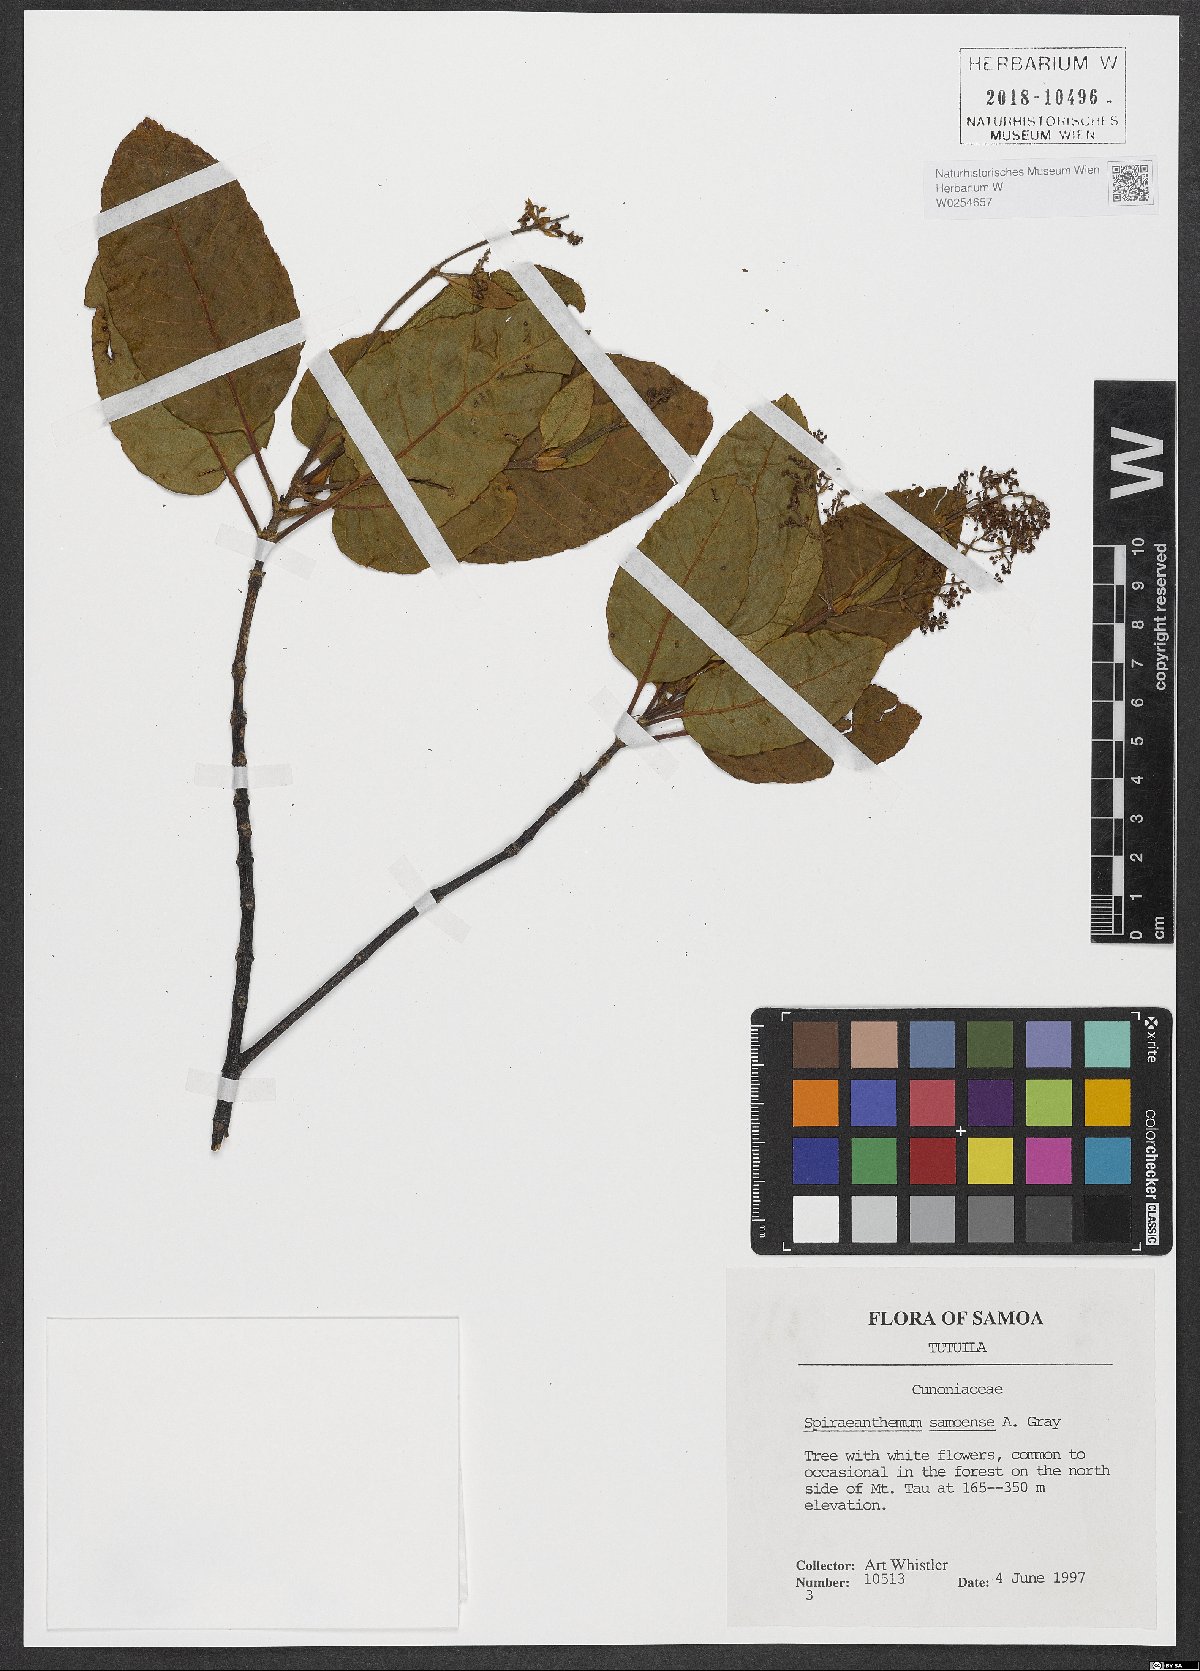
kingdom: Plantae
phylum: Tracheophyta
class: Magnoliopsida
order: Oxalidales
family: Cunoniaceae
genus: Spiraeanthemum
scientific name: Spiraeanthemum samoense
